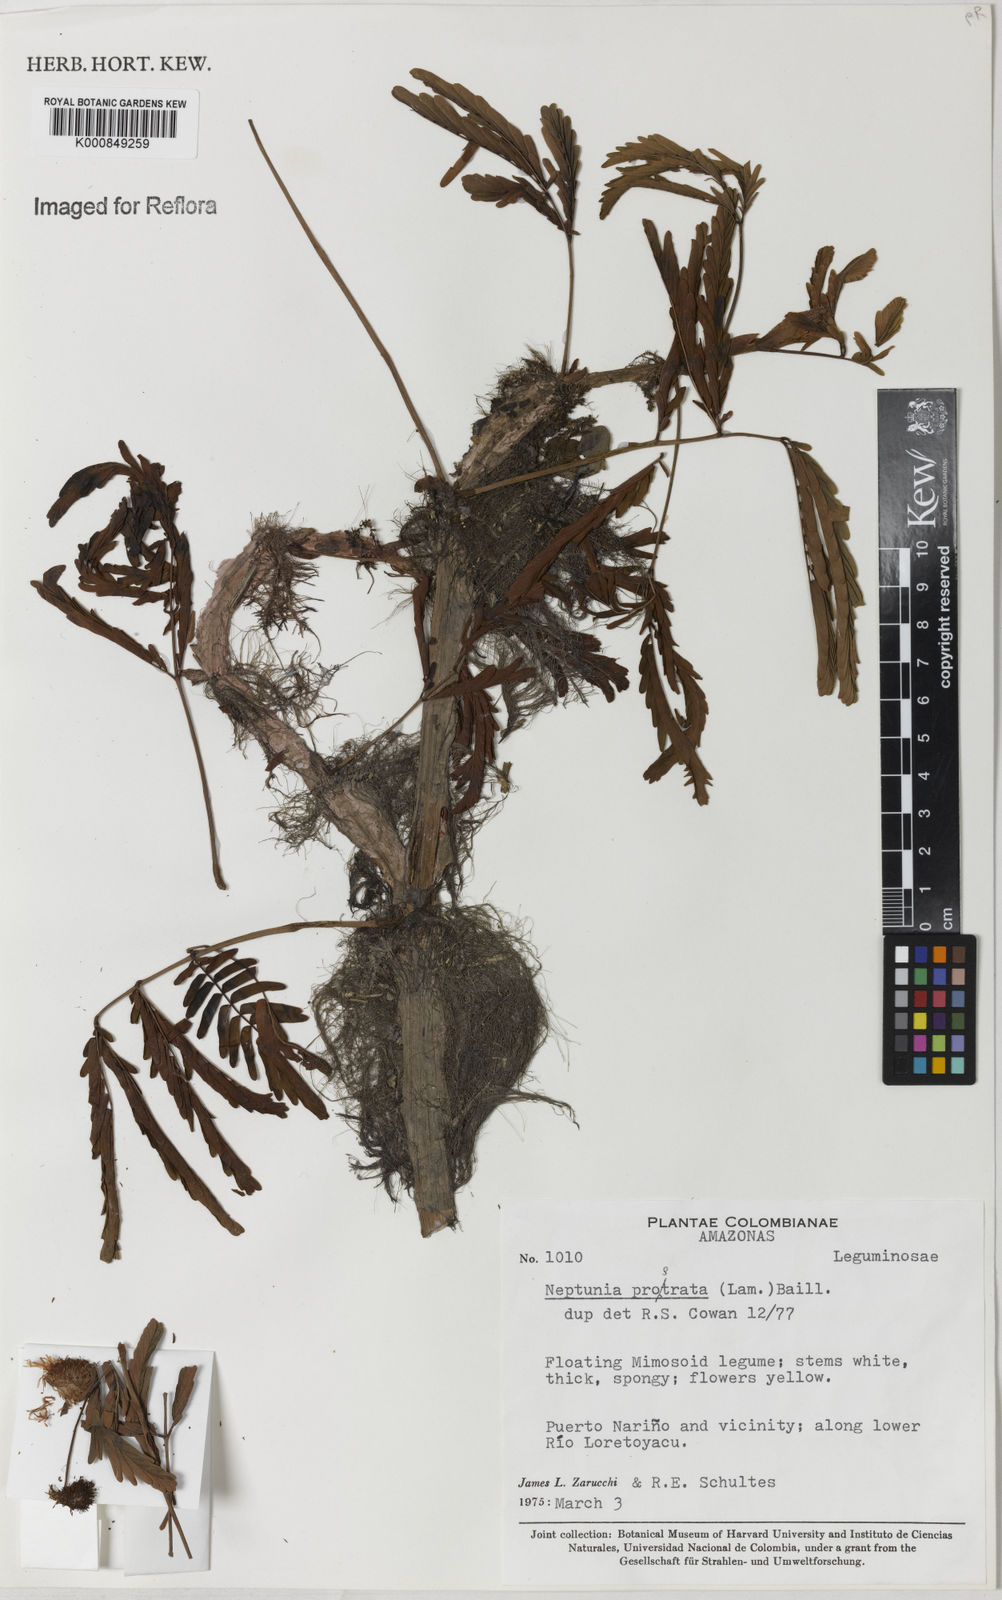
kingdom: Plantae
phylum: Tracheophyta
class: Magnoliopsida
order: Fabales
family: Fabaceae
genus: Neptunia
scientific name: Neptunia prostrata
